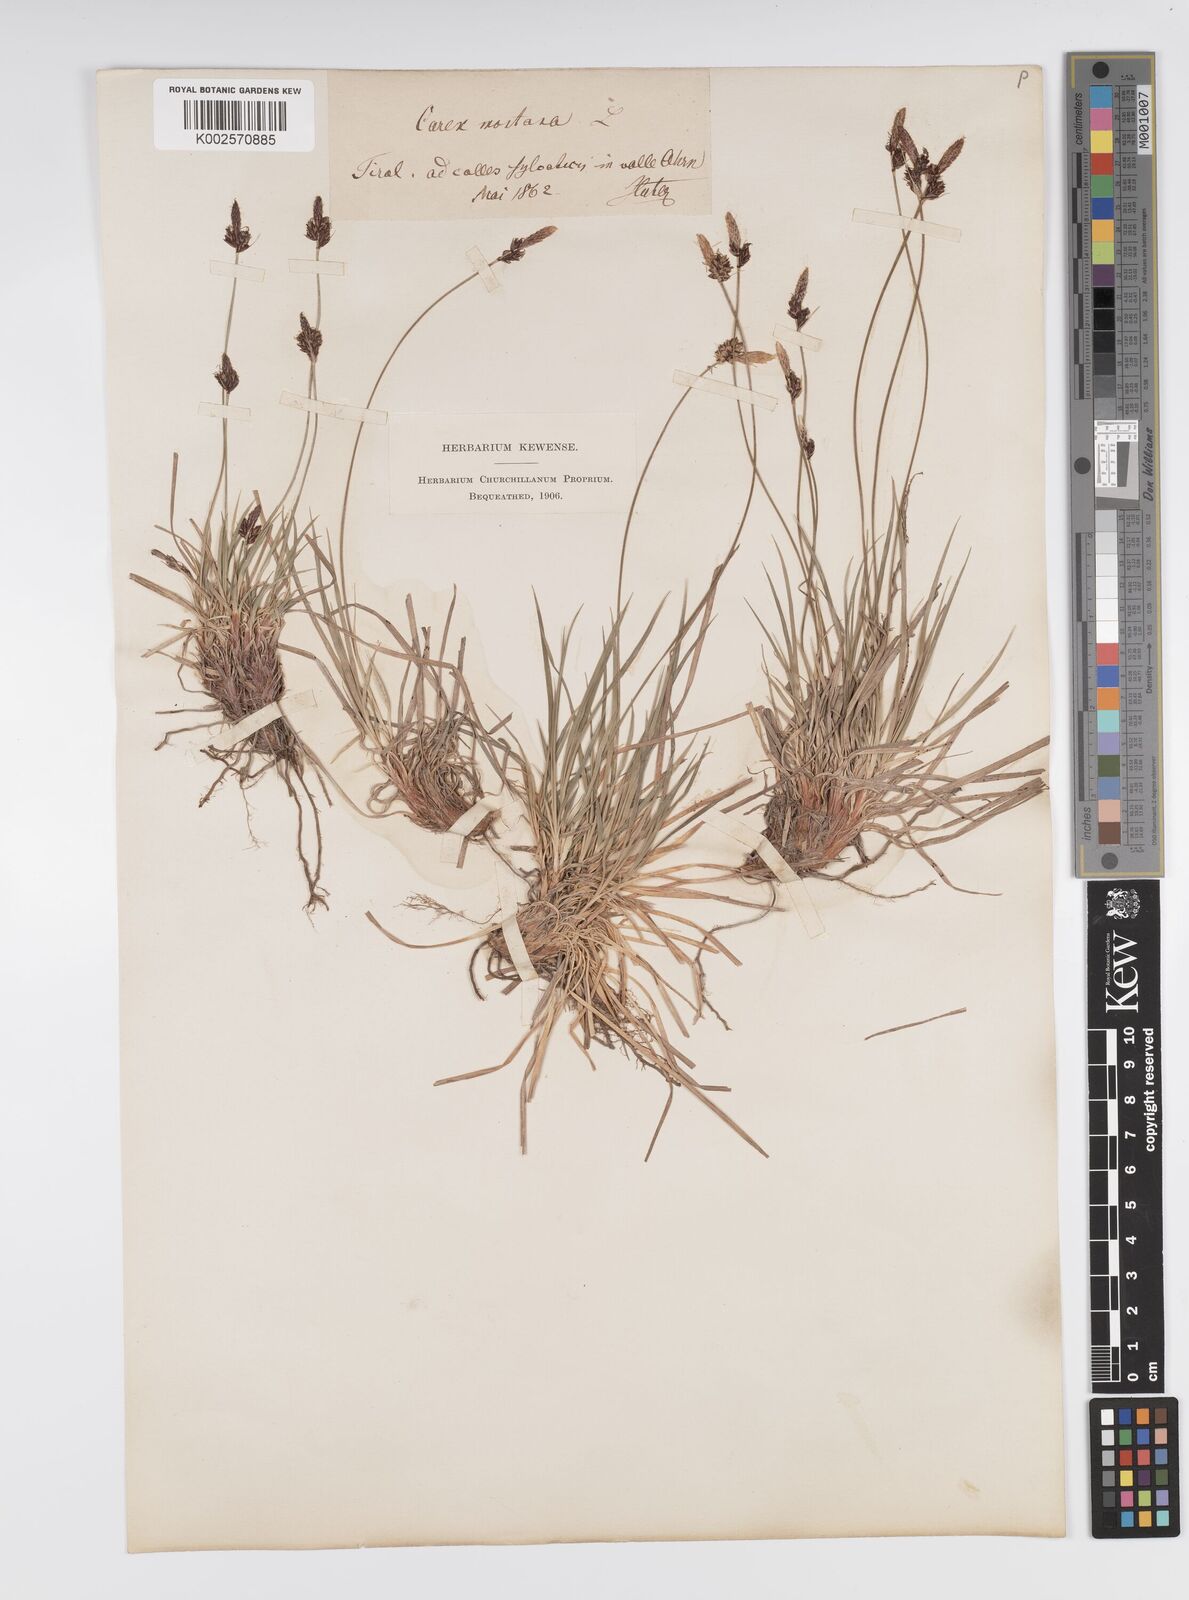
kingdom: Plantae
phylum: Tracheophyta
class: Liliopsida
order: Poales
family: Cyperaceae
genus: Carex
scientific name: Carex montana
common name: Soft-leaved sedge
